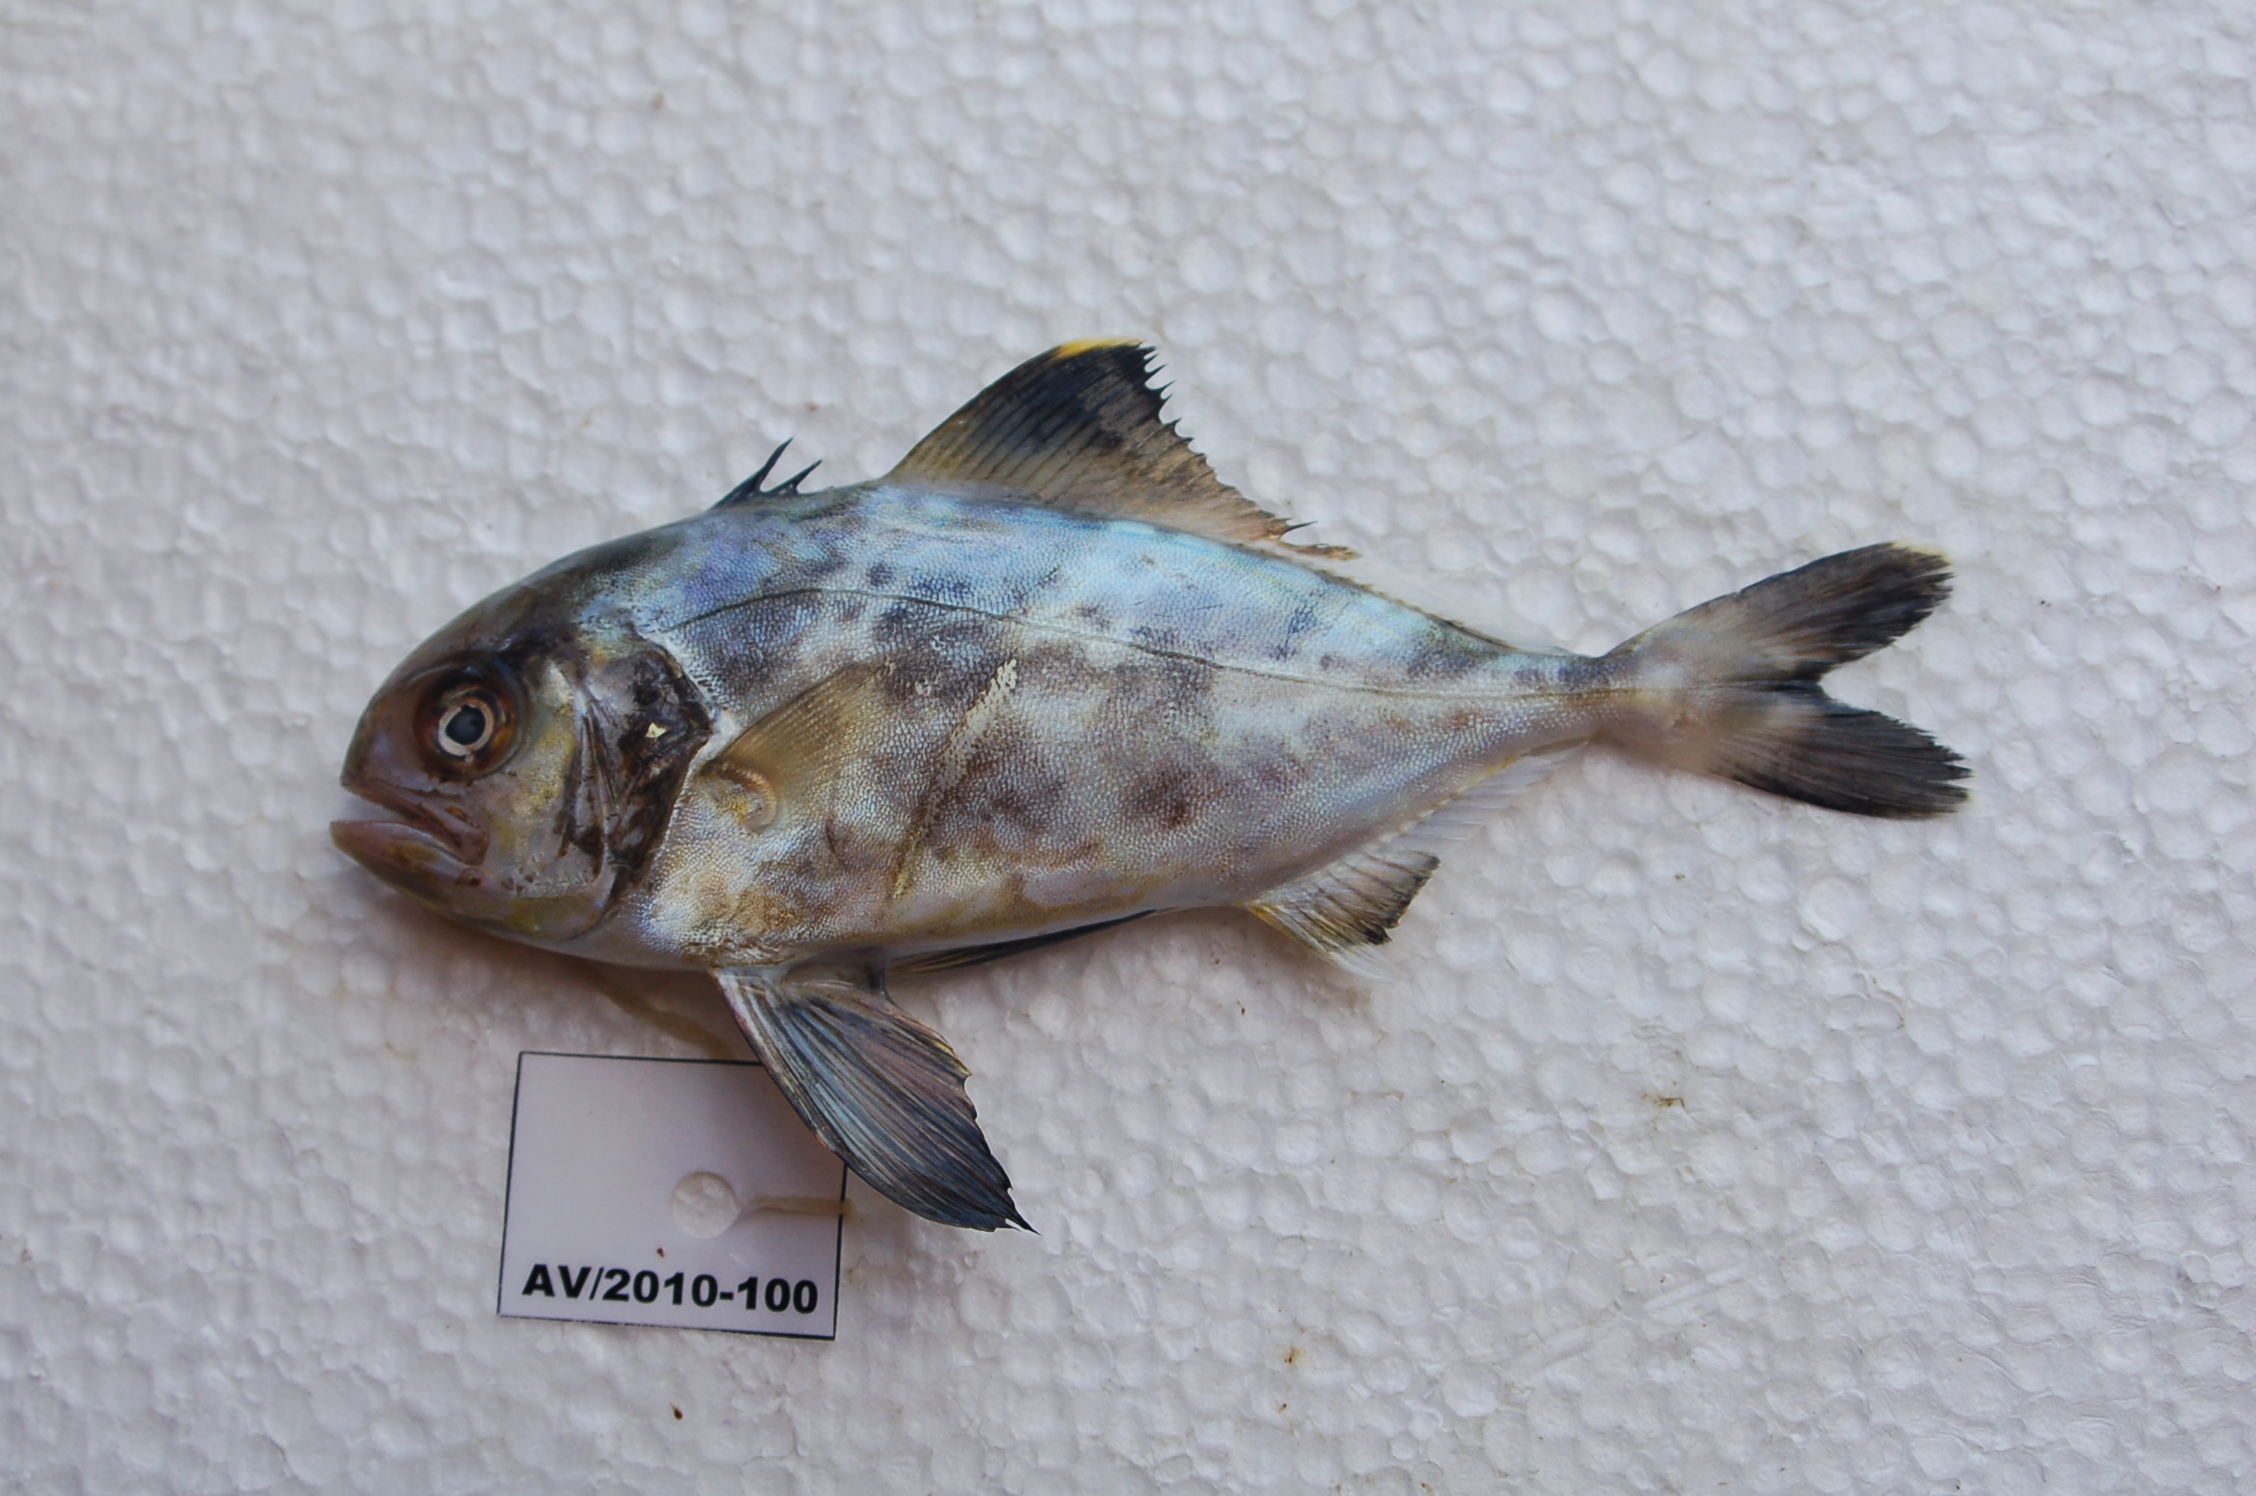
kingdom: Animalia
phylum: Chordata
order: Perciformes
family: Centrolophidae
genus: Hyperoglyphe
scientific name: Hyperoglyphe pringlei
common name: Black butterfish
